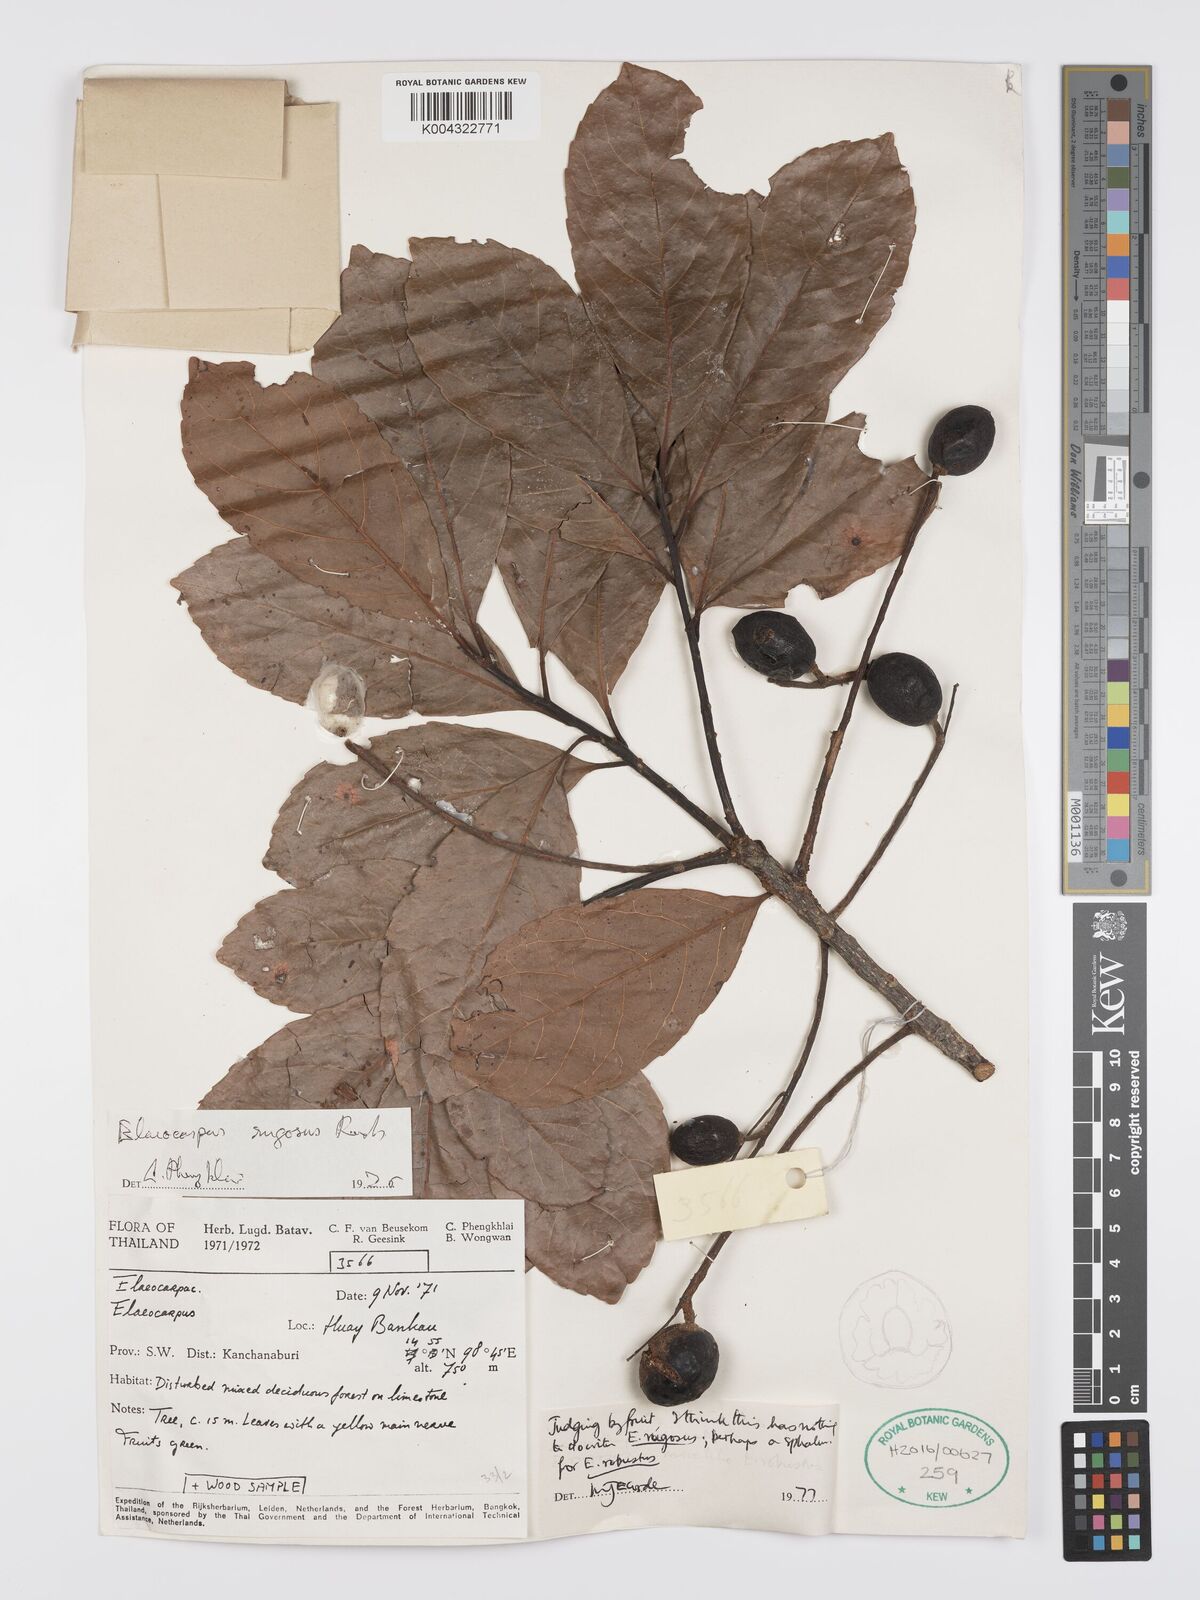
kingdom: Plantae
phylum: Tracheophyta
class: Magnoliopsida
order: Oxalidales
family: Elaeocarpaceae
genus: Elaeocarpus
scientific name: Elaeocarpus rugosus
